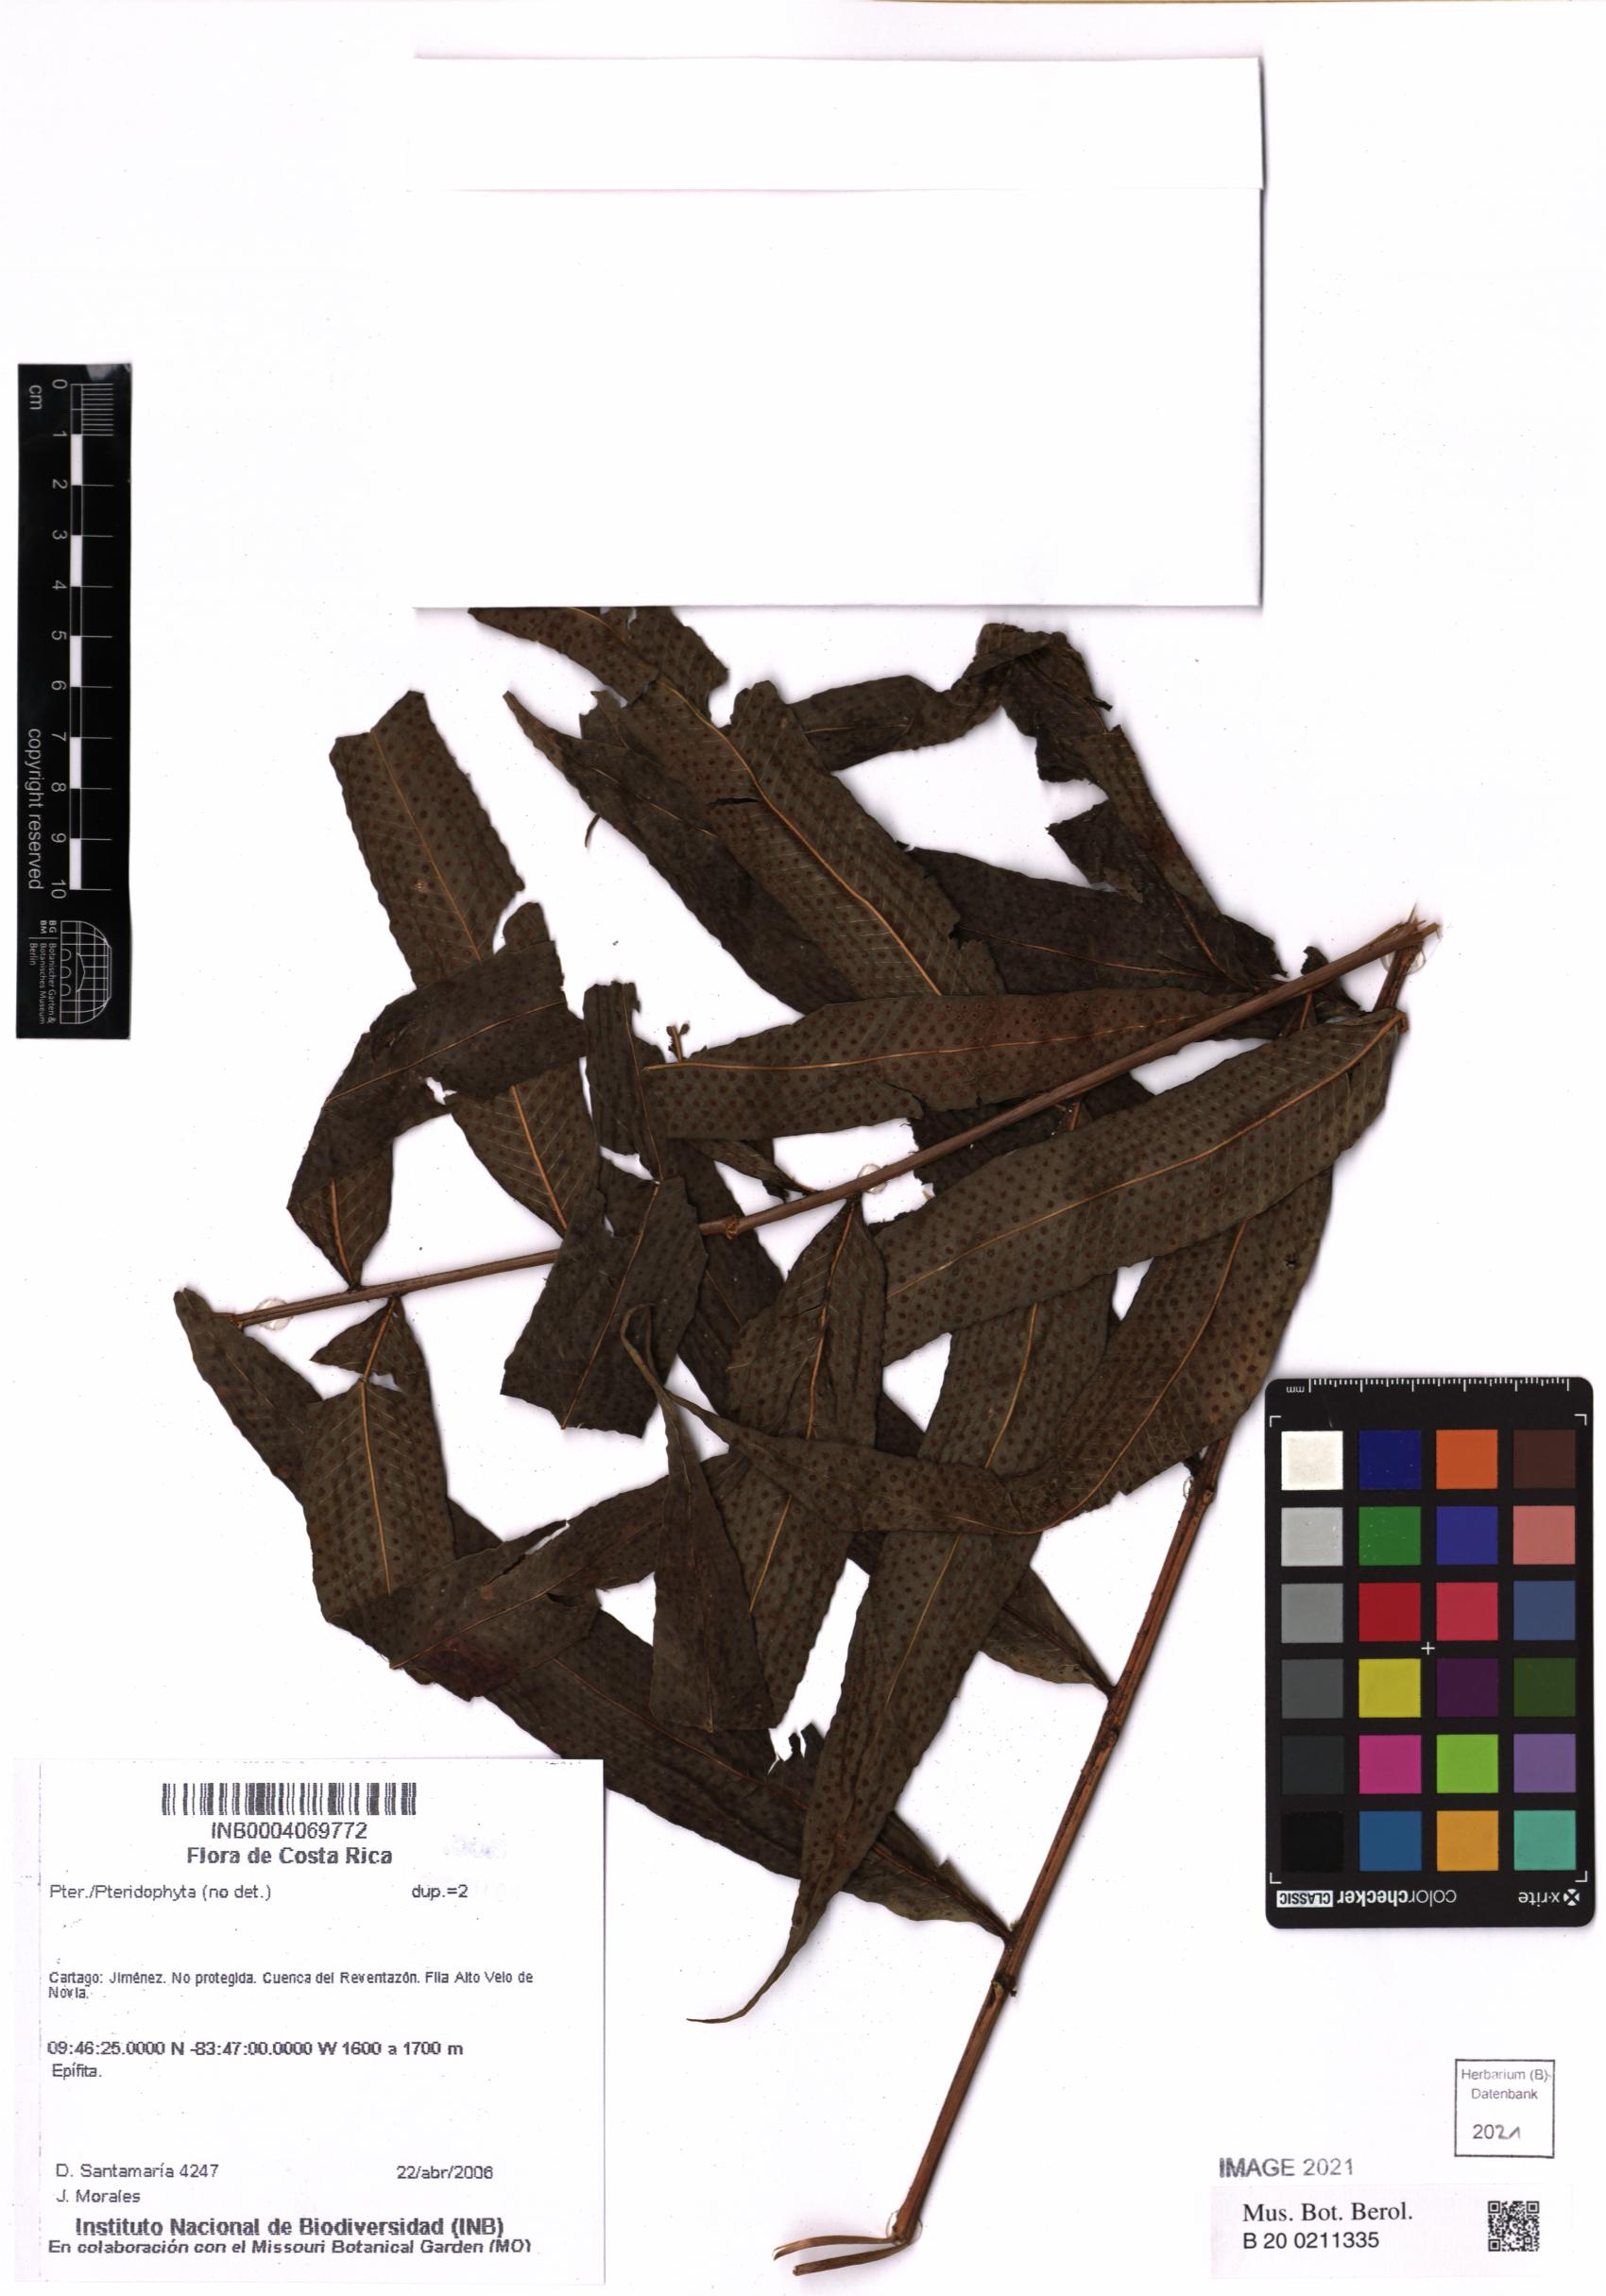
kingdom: Plantae
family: Pteridophyta
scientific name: Pteridophyta
